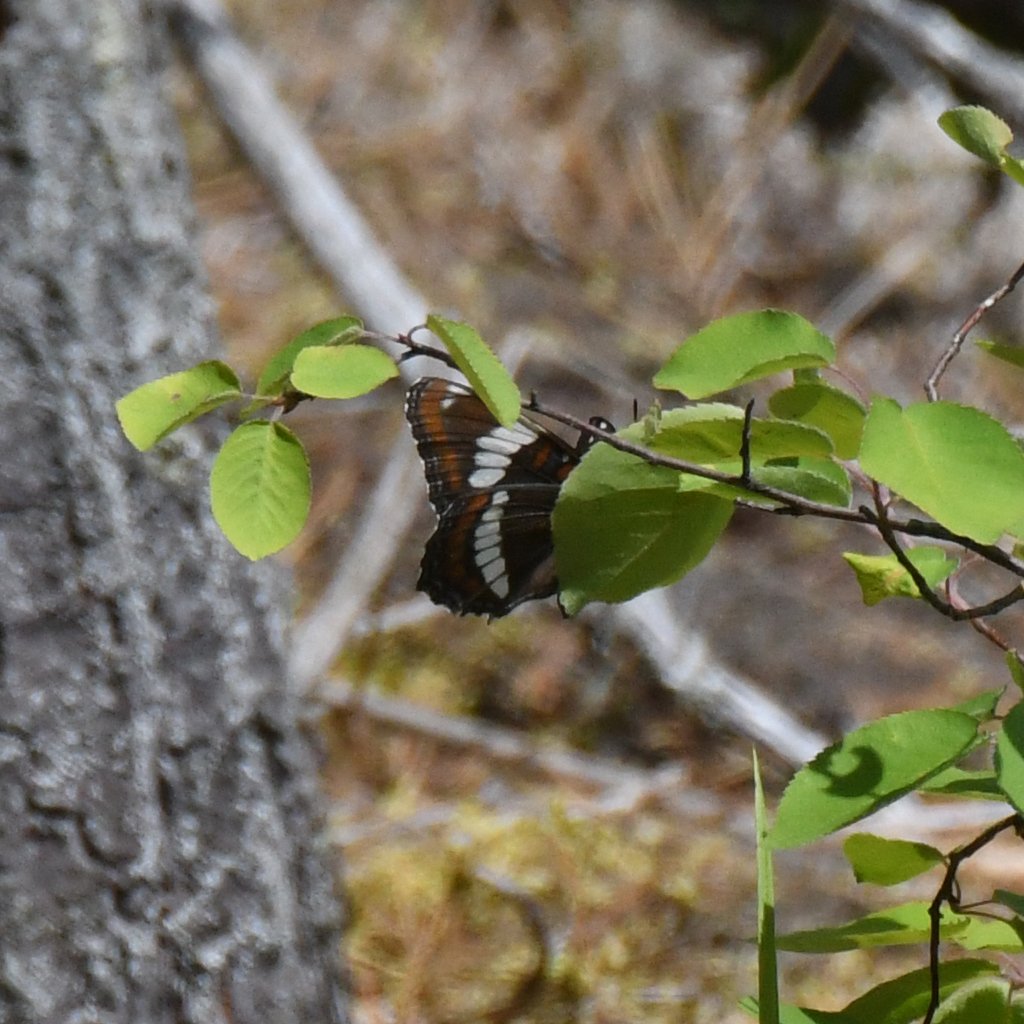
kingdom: Animalia
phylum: Arthropoda
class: Insecta
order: Lepidoptera
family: Nymphalidae
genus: Limenitis
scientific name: Limenitis arthemis
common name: Red-spotted Admiral
